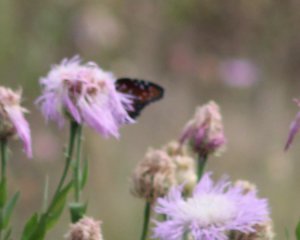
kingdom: Animalia
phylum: Arthropoda
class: Insecta
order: Lepidoptera
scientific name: Lepidoptera
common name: Butterflies
